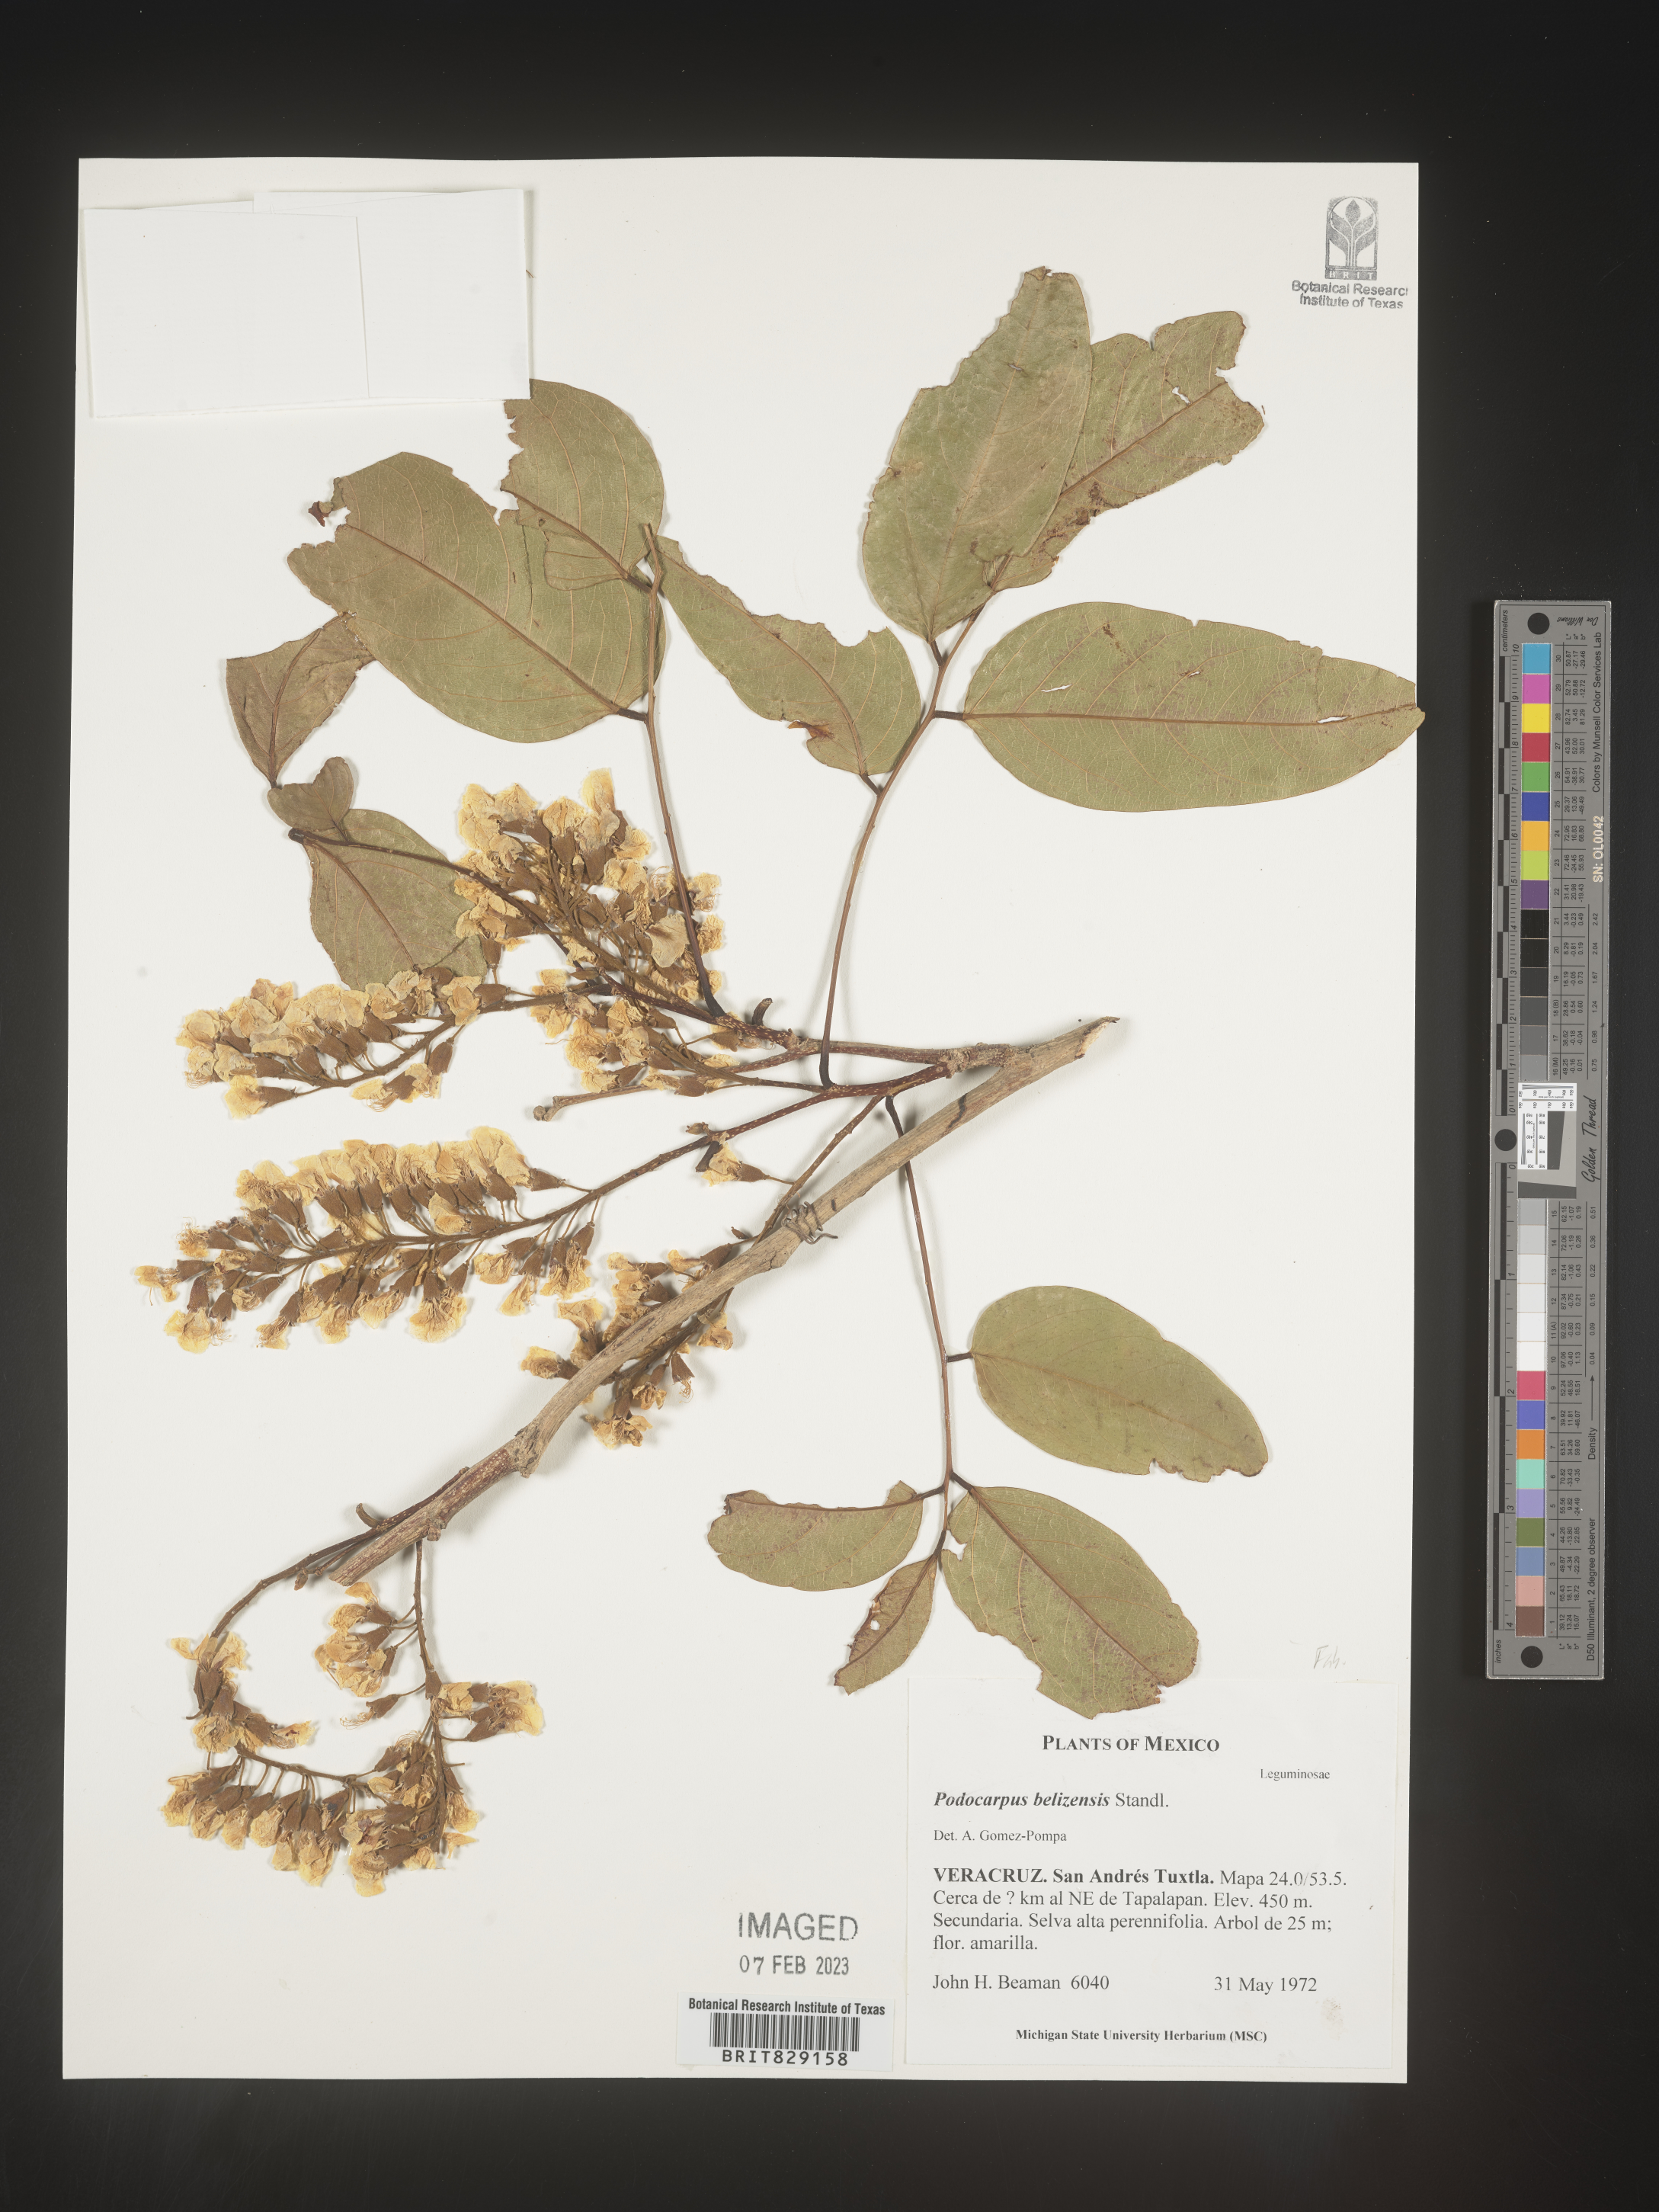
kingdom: Plantae
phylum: Tracheophyta
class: Pinopsida
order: Pinales
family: Podocarpaceae
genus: Podocarpus
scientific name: Podocarpus
